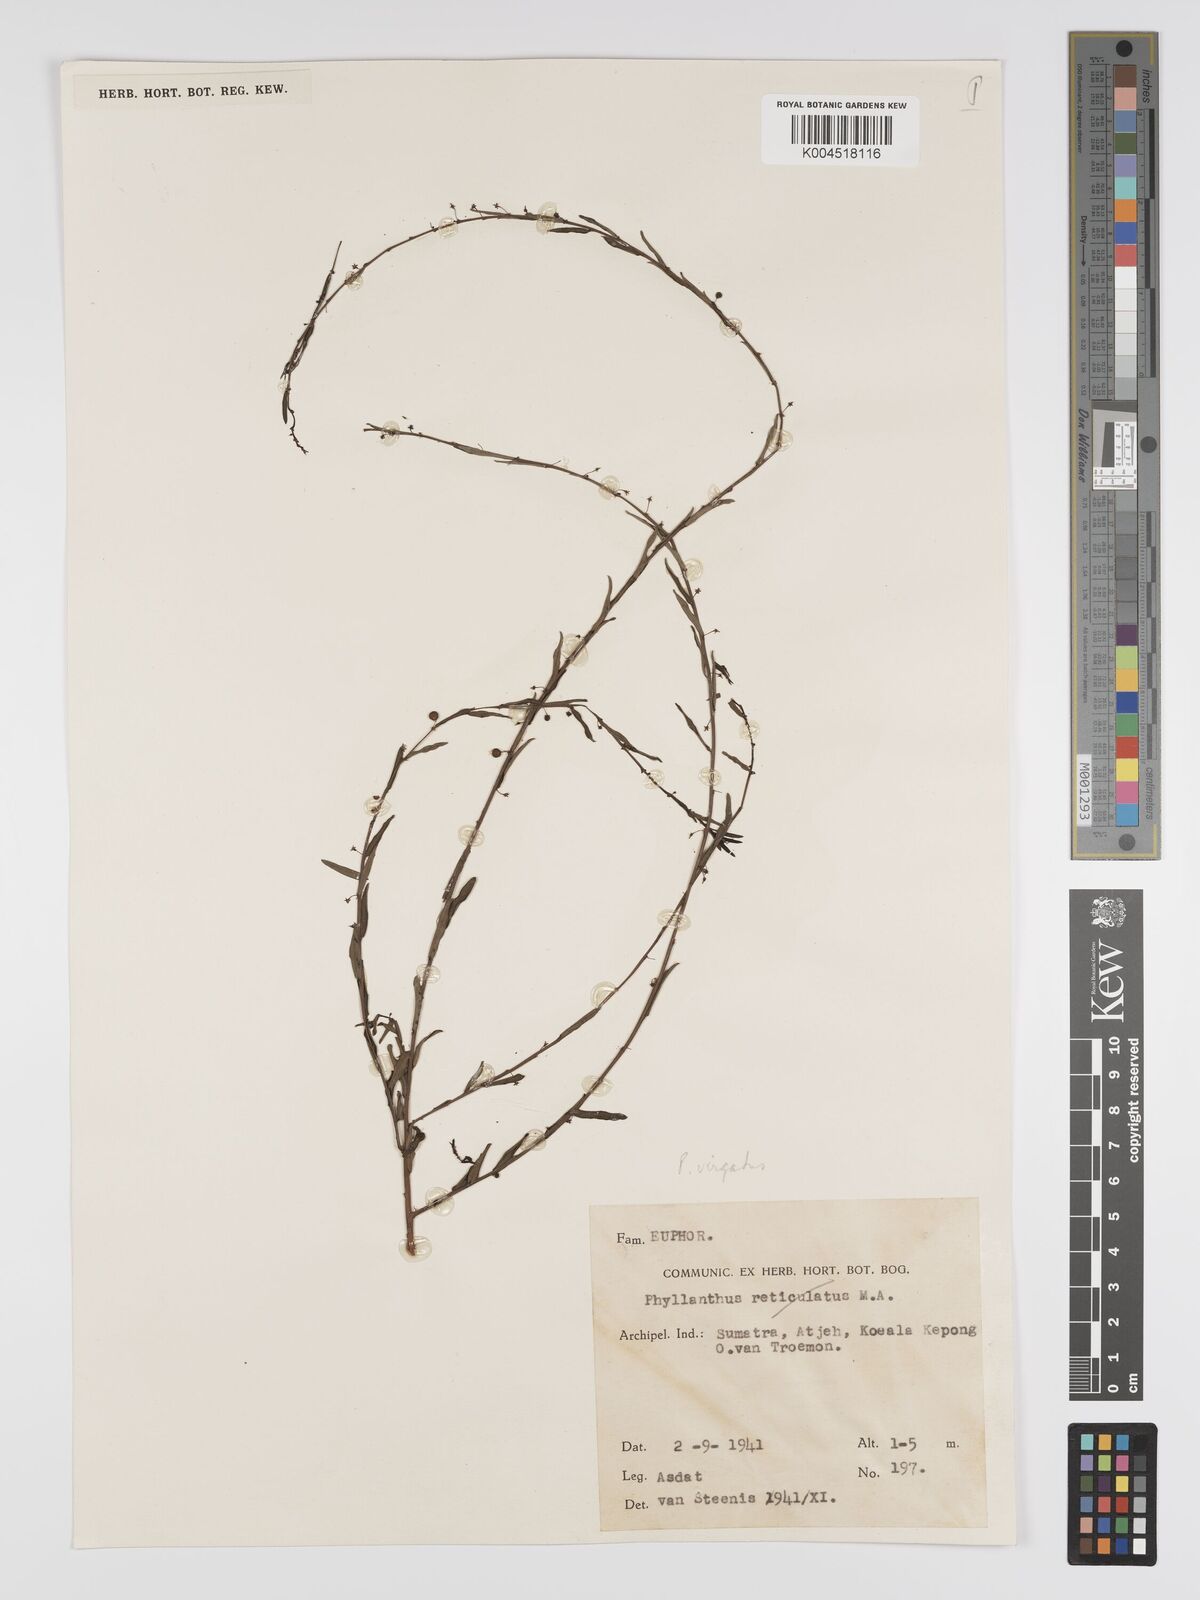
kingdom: Plantae
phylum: Tracheophyta
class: Magnoliopsida
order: Malpighiales
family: Phyllanthaceae
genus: Phyllanthus
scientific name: Phyllanthus virgatus
